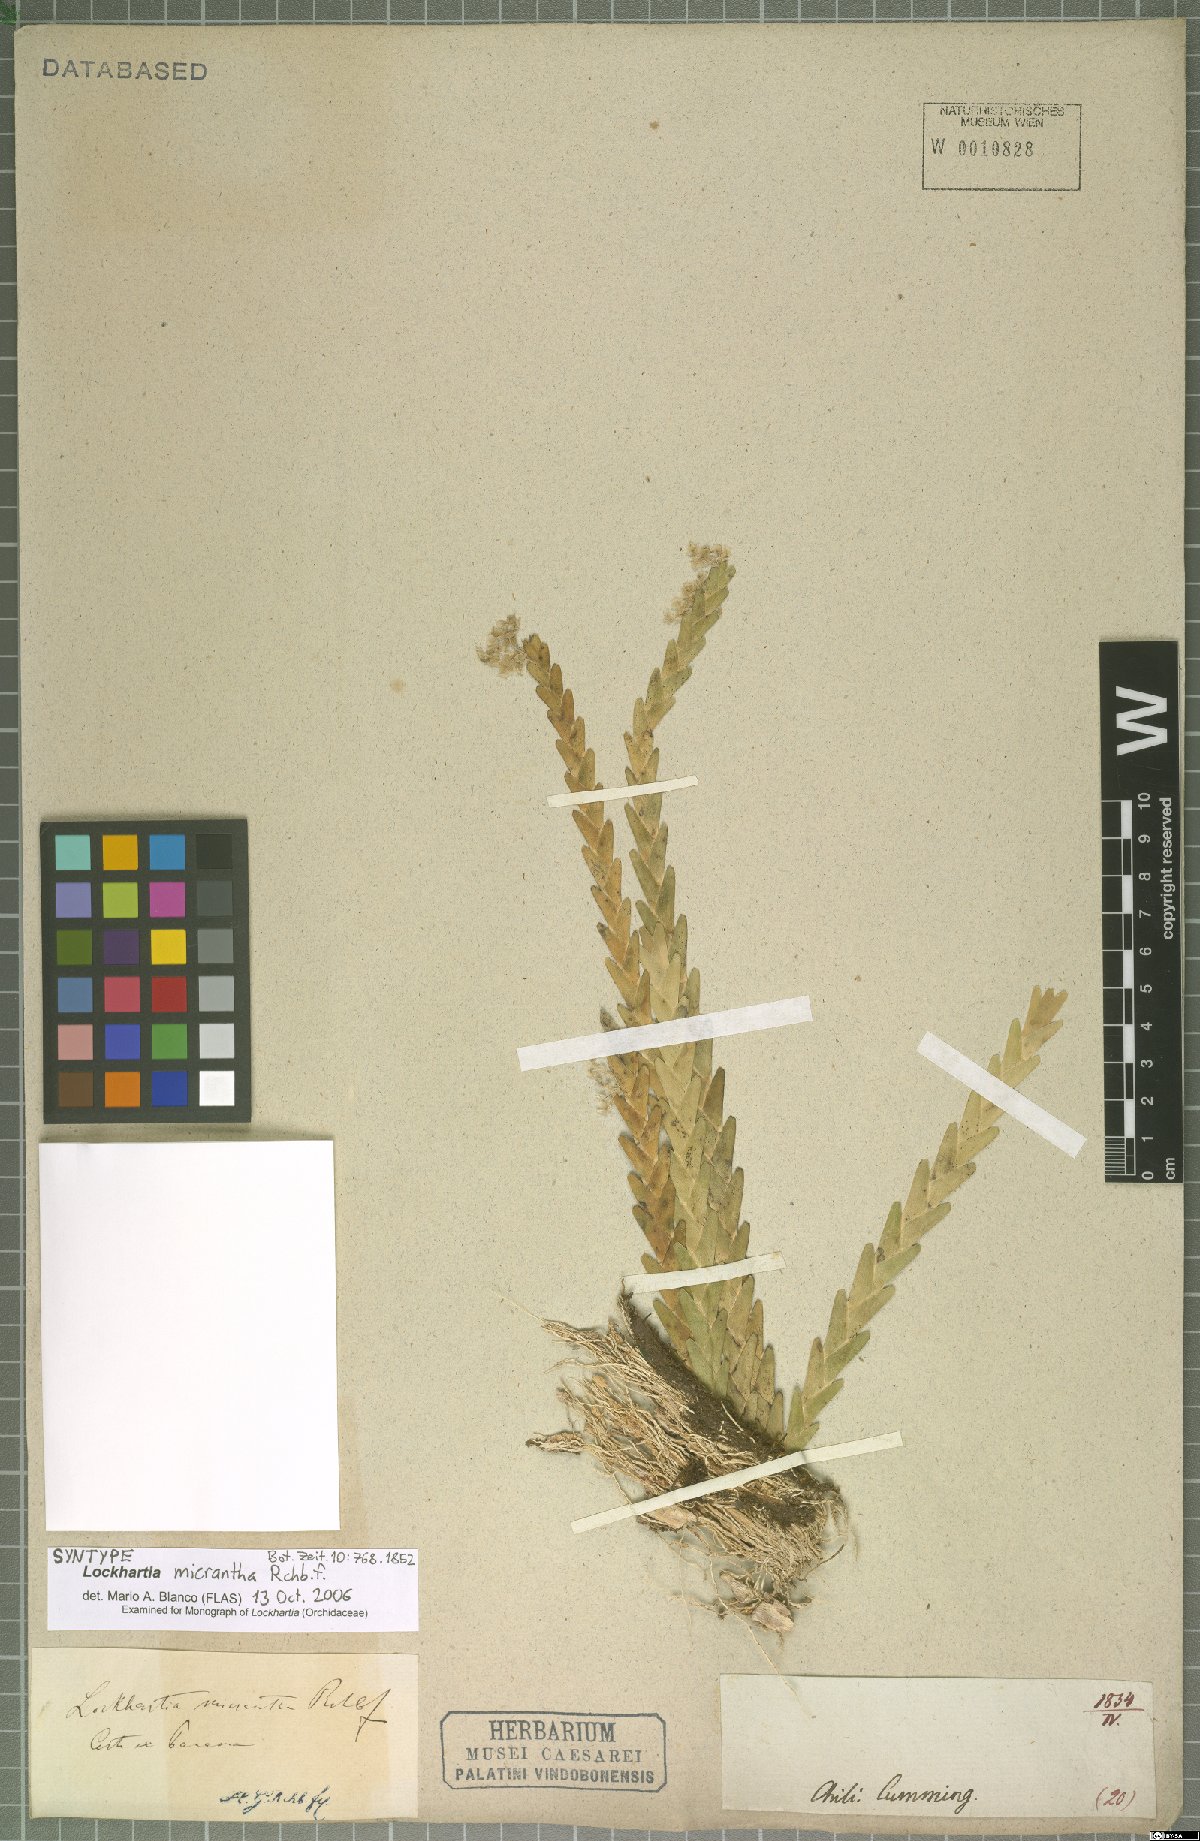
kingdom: Plantae
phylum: Tracheophyta
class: Liliopsida
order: Asparagales
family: Orchidaceae
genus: Lockhartia
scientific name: Lockhartia micrantha
